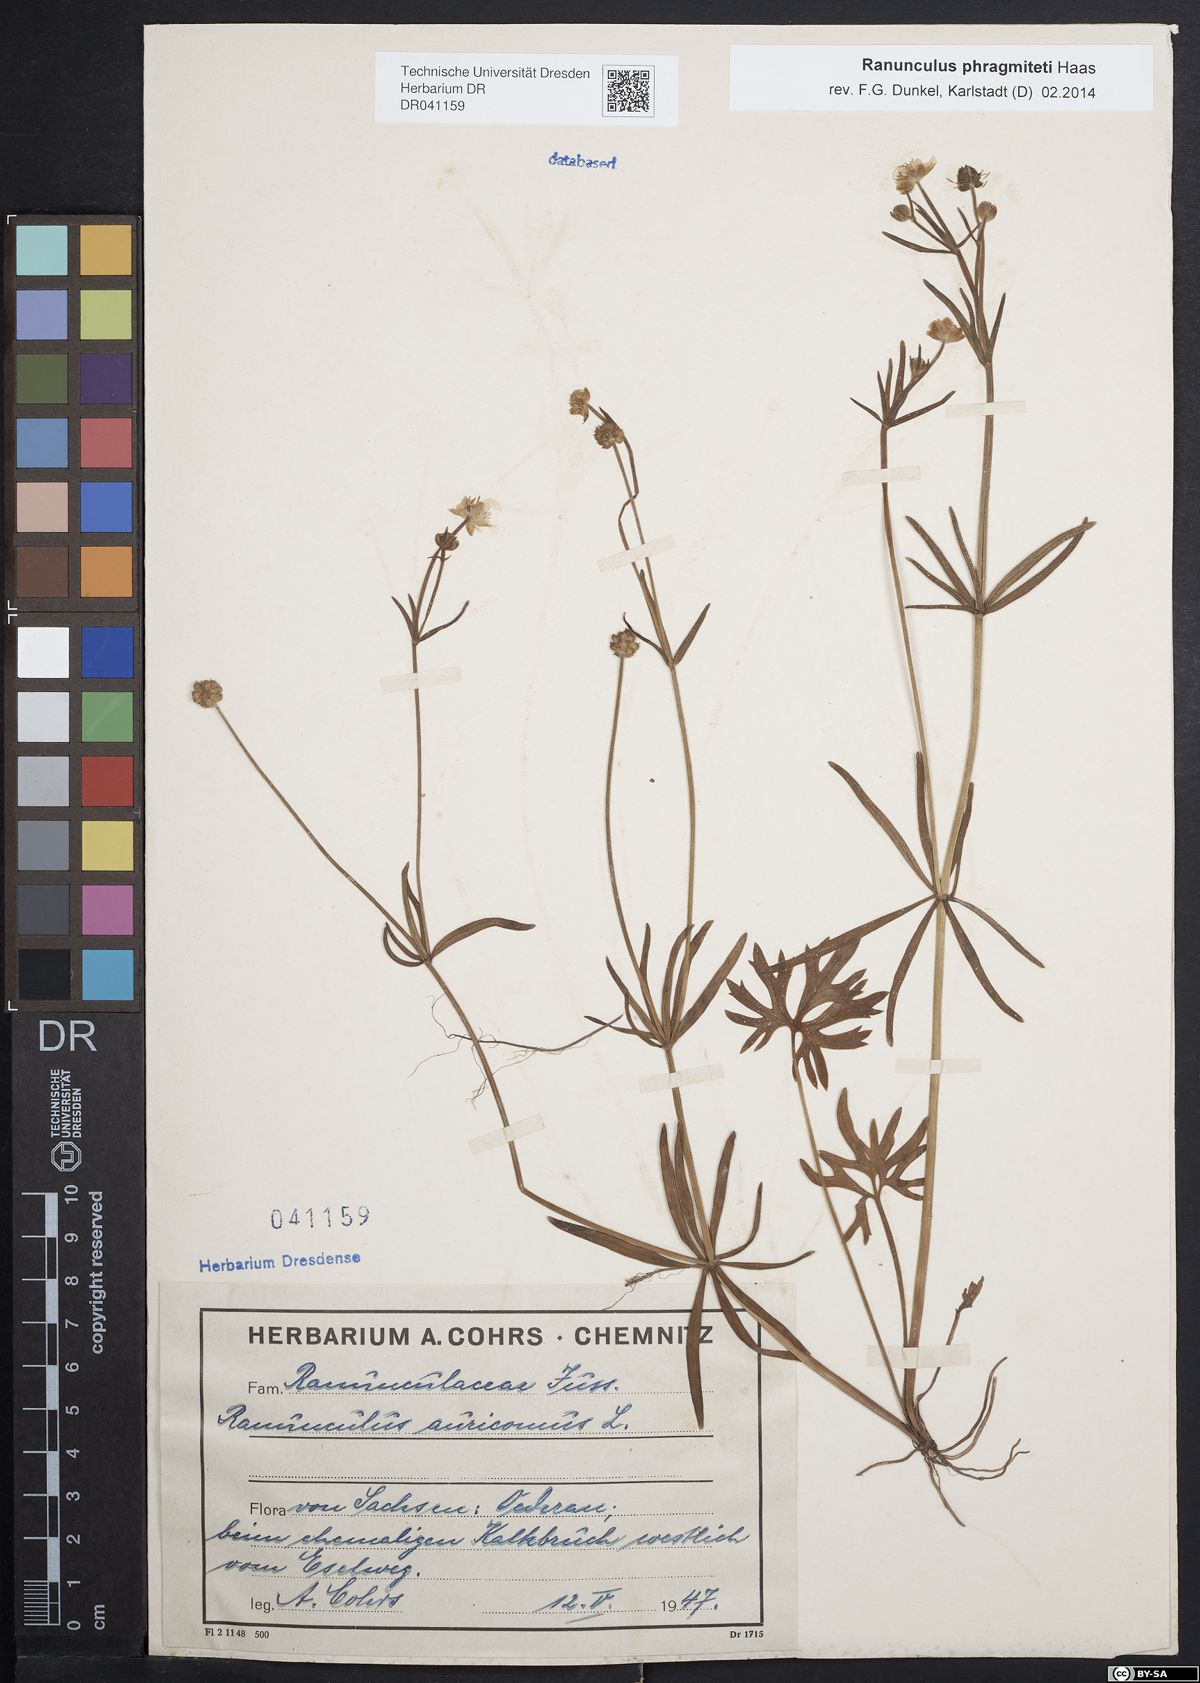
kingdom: Plantae
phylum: Tracheophyta
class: Magnoliopsida
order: Ranunculales
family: Ranunculaceae
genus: Ranunculus
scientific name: Ranunculus phragmiteti
